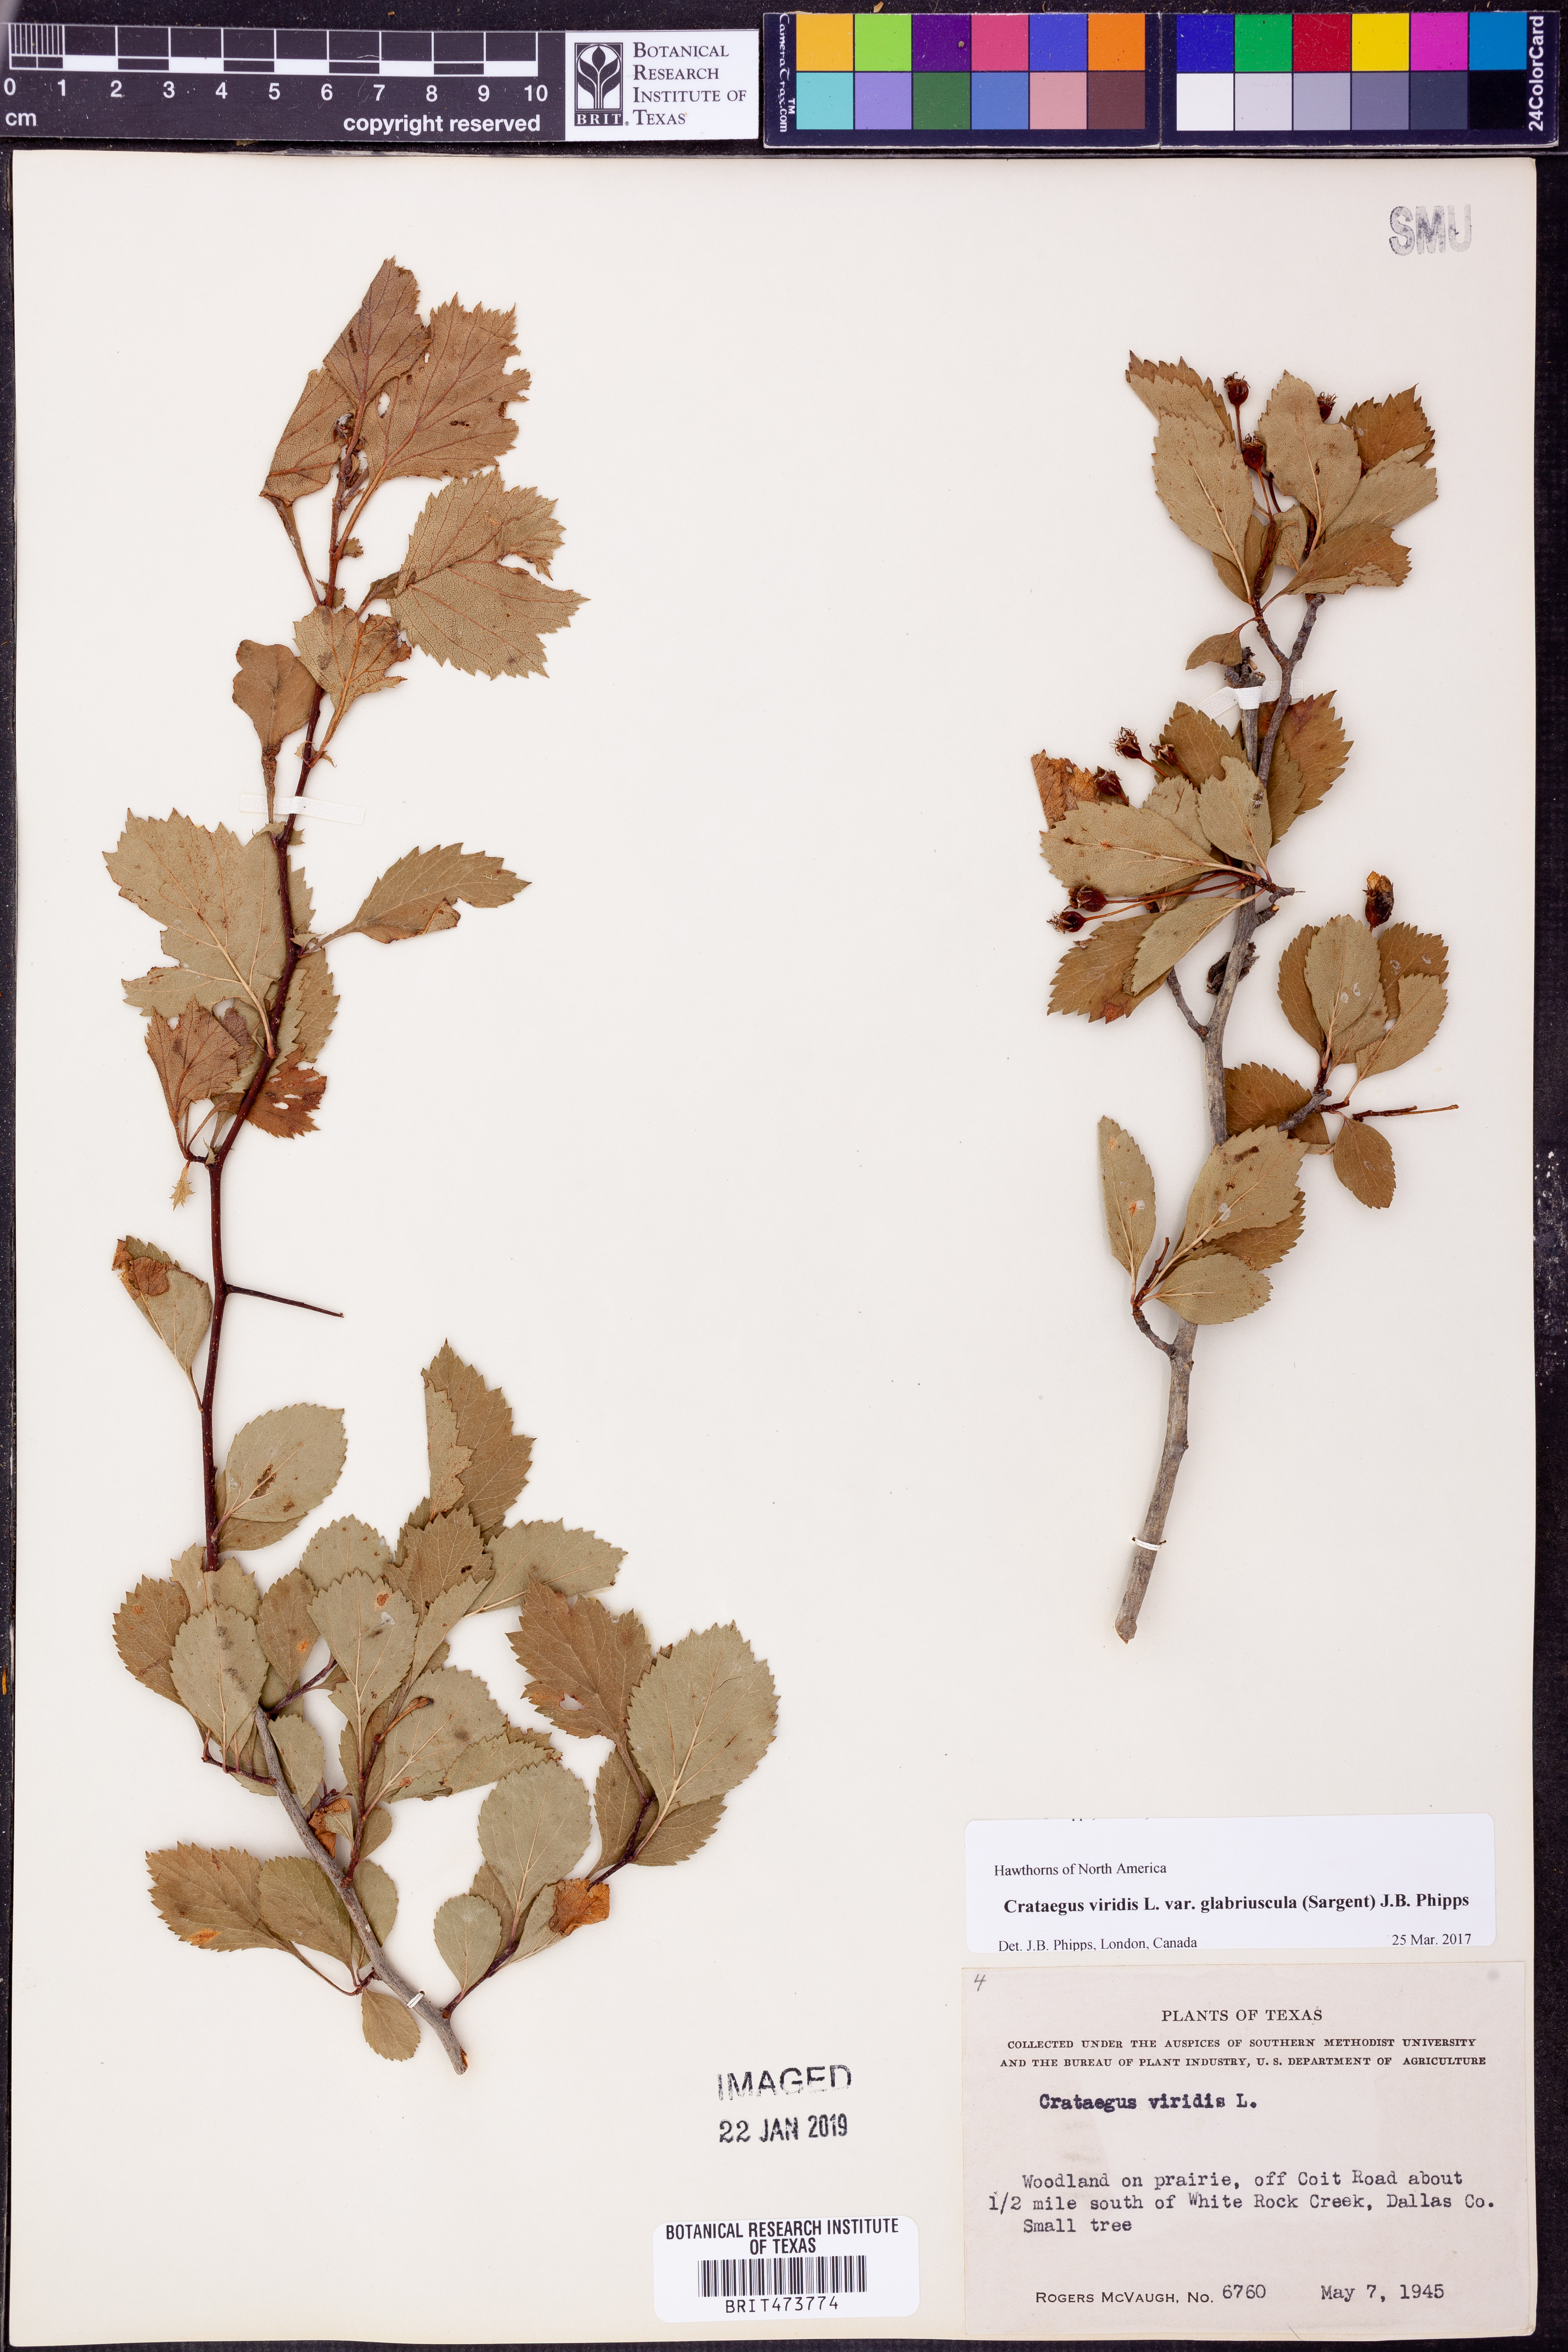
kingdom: Plantae
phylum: Tracheophyta
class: Magnoliopsida
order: Rosales
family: Rosaceae
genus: Crataegus
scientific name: Crataegus viridis
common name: Southernthorn
